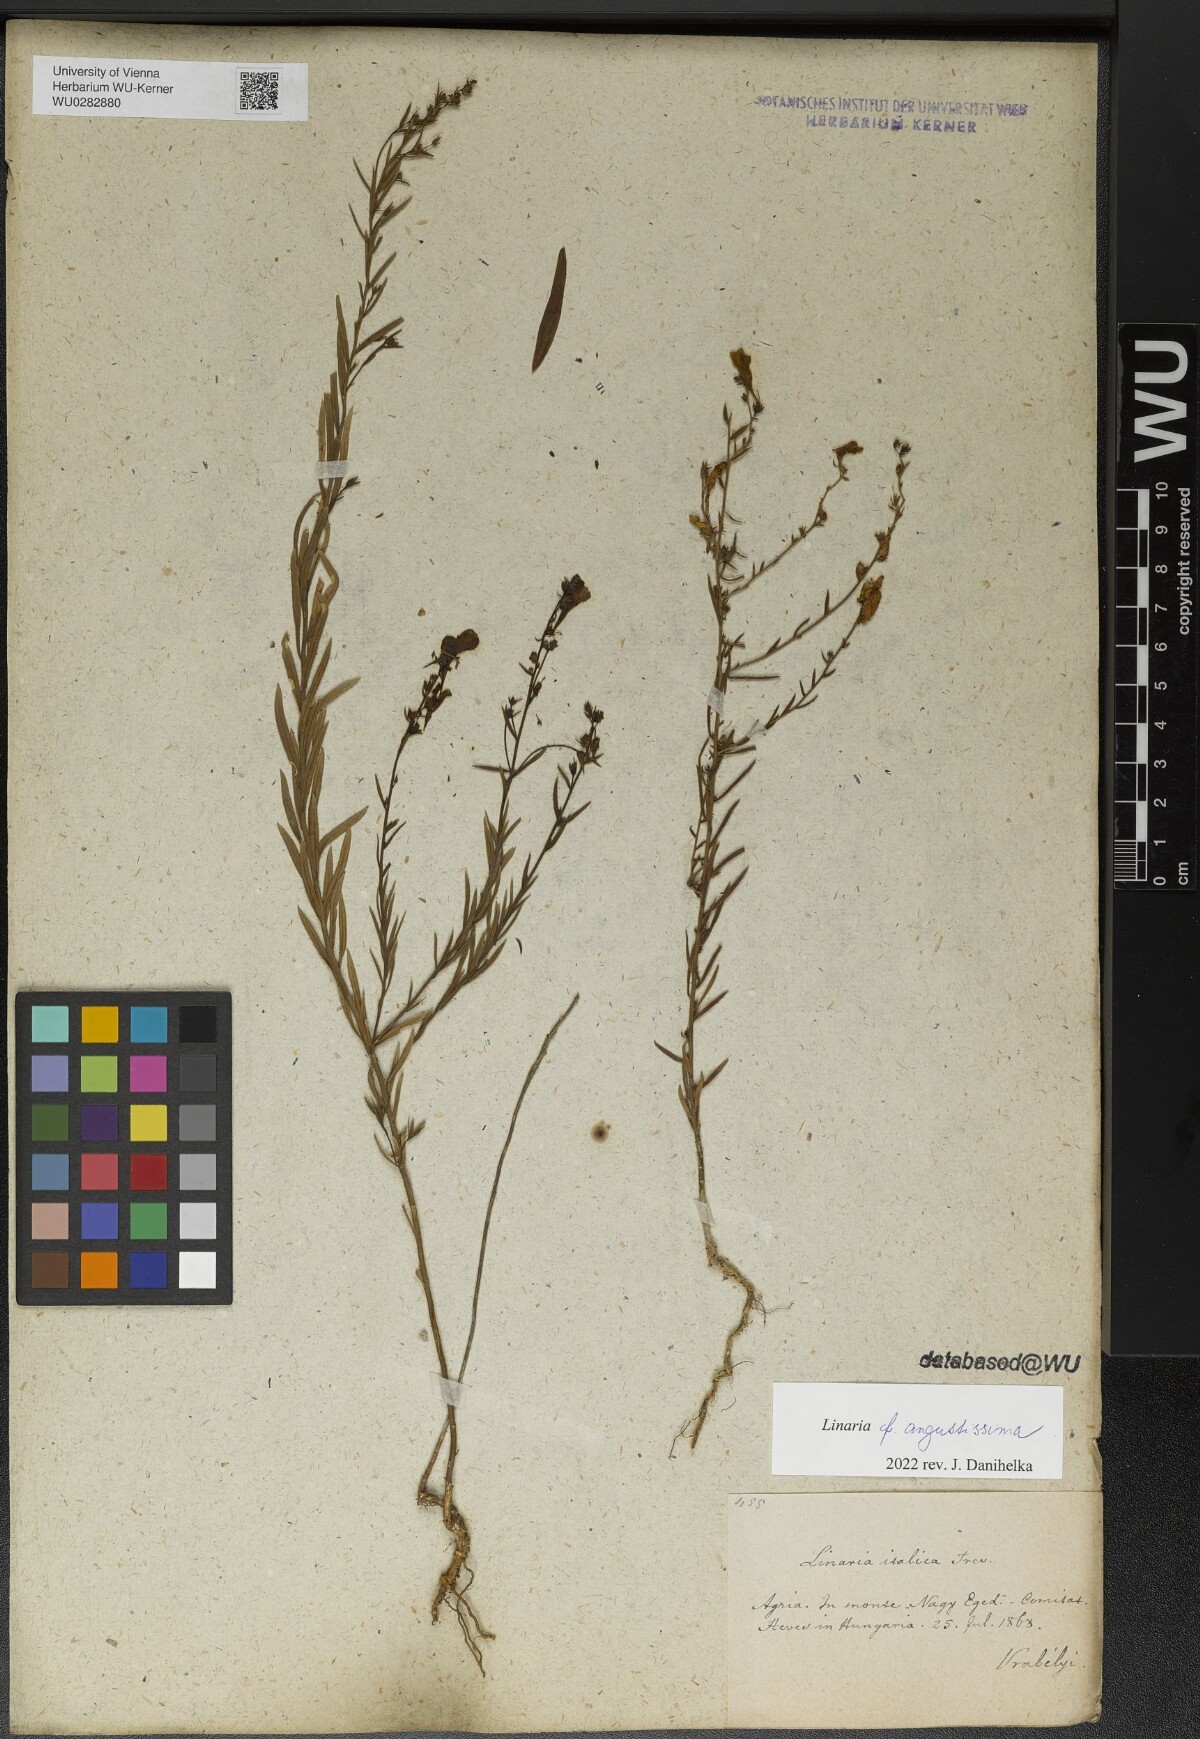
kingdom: Plantae
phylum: Tracheophyta
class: Magnoliopsida
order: Lamiales
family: Plantaginaceae
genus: Linaria
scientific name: Linaria angustissima
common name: Italian toadflax
